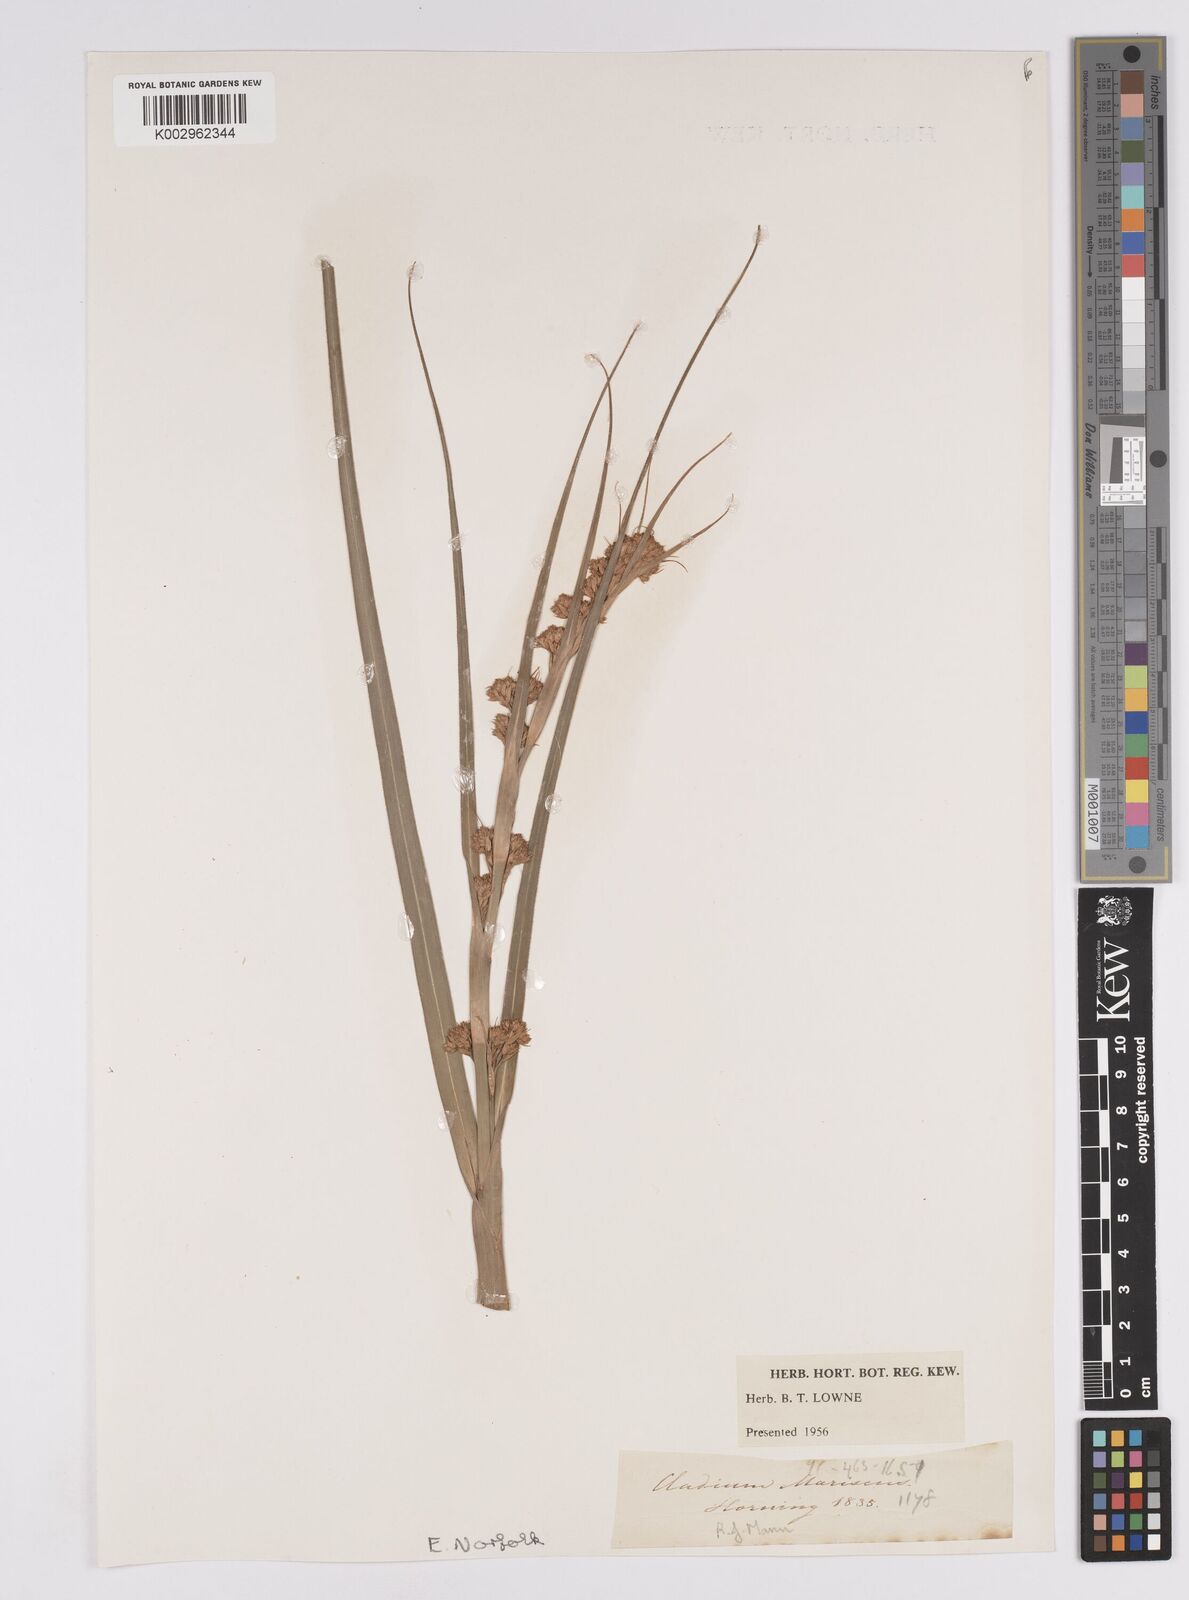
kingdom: Plantae
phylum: Tracheophyta
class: Liliopsida
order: Poales
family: Cyperaceae
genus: Cladium
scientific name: Cladium mariscus
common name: Great fen-sedge
